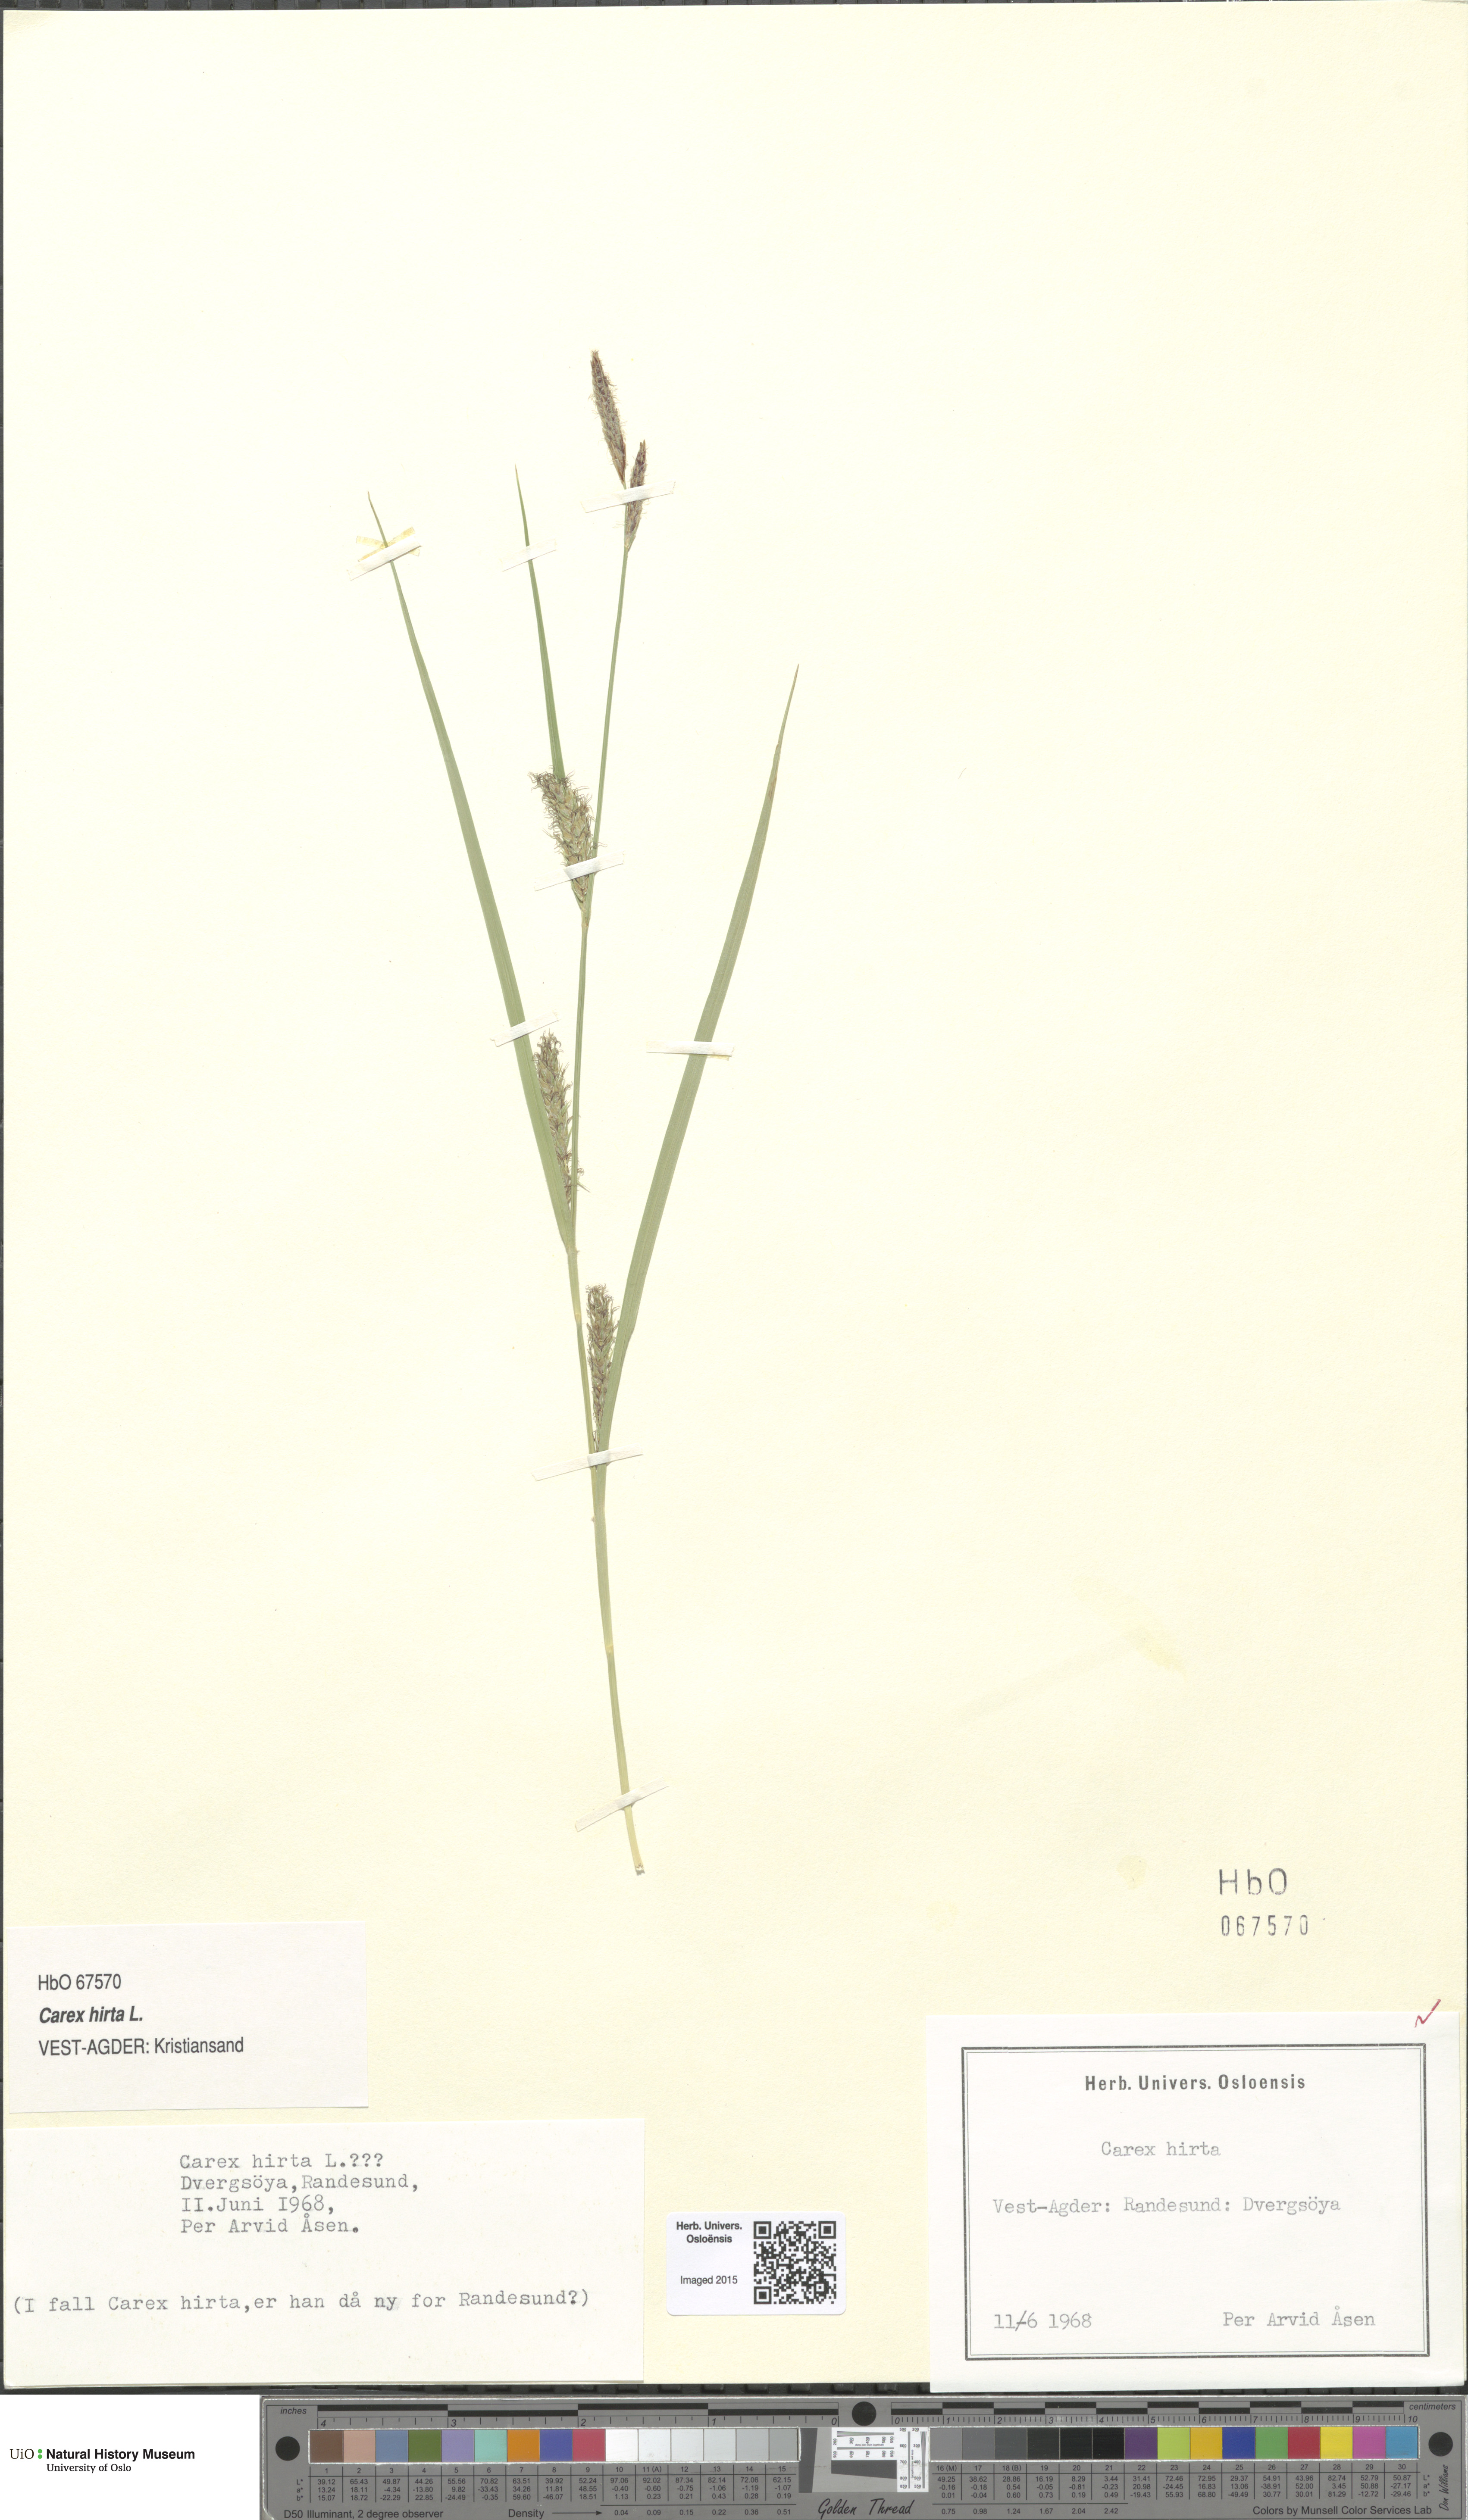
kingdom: Plantae
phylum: Tracheophyta
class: Liliopsida
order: Poales
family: Cyperaceae
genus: Carex
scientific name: Carex hirta
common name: Hairy sedge
